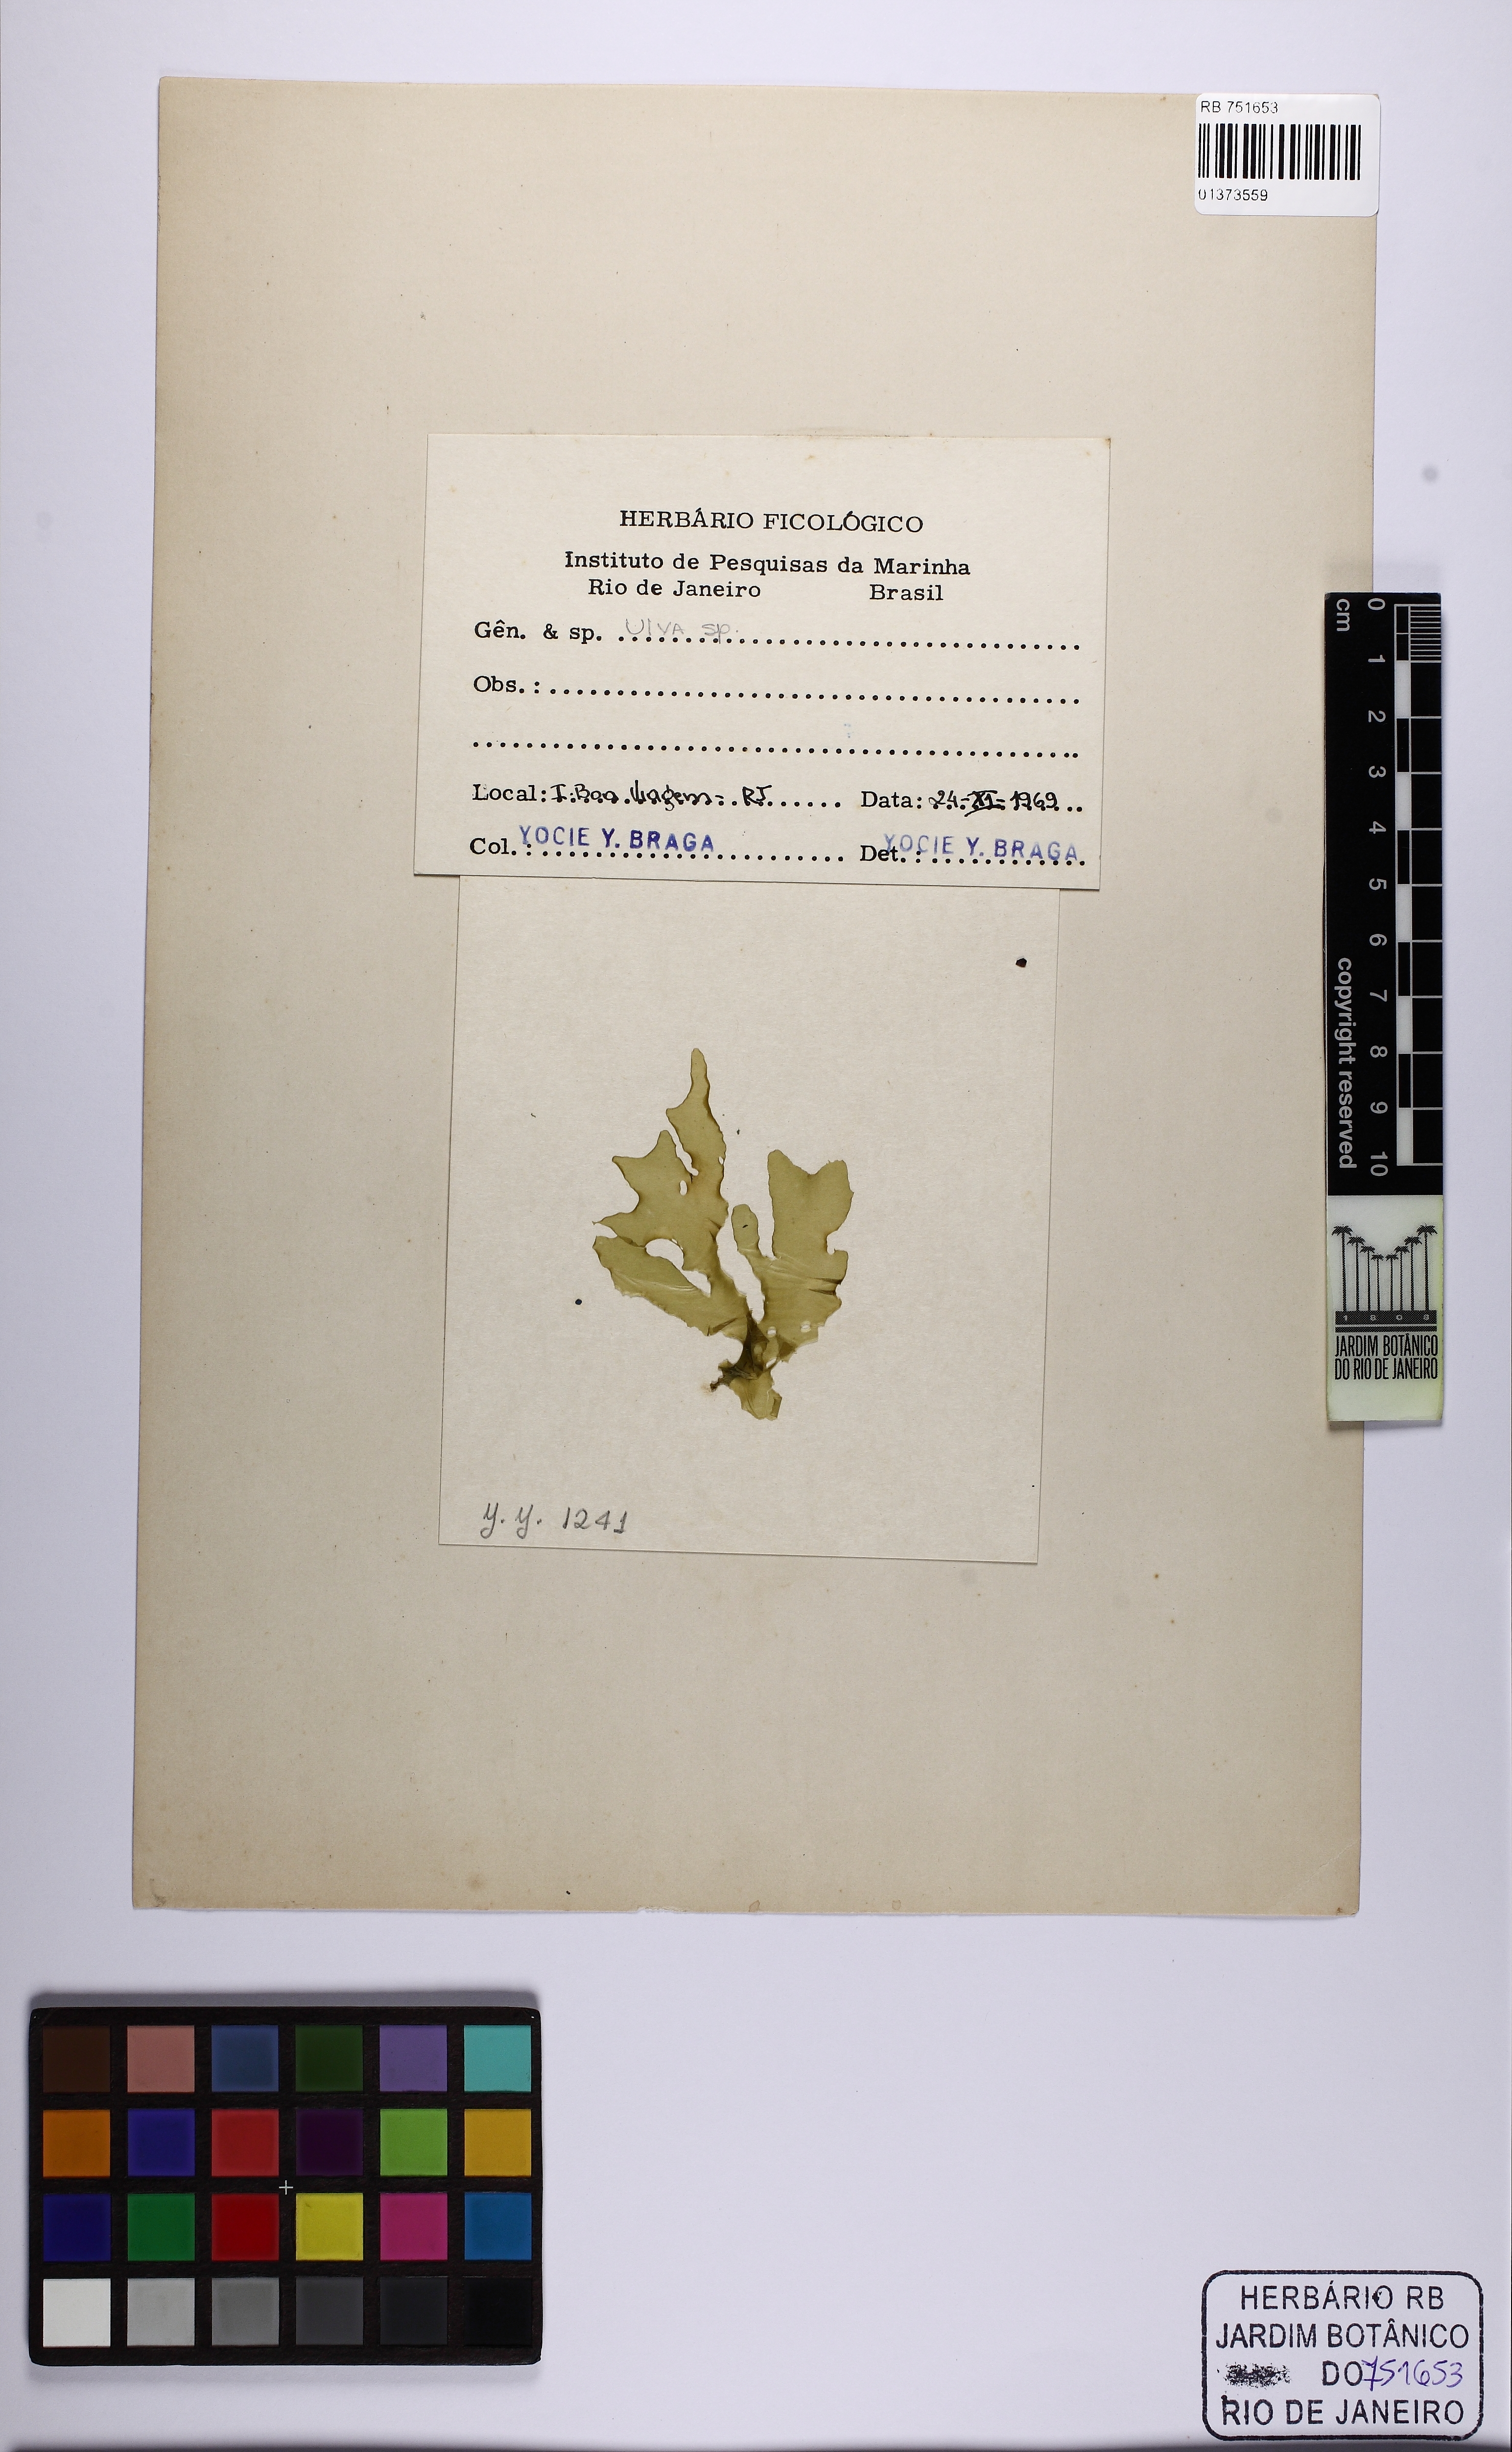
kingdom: Plantae
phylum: Chlorophyta
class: Ulvophyceae
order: Ulvales
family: Ulvaceae
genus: Ulva
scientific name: Ulva
